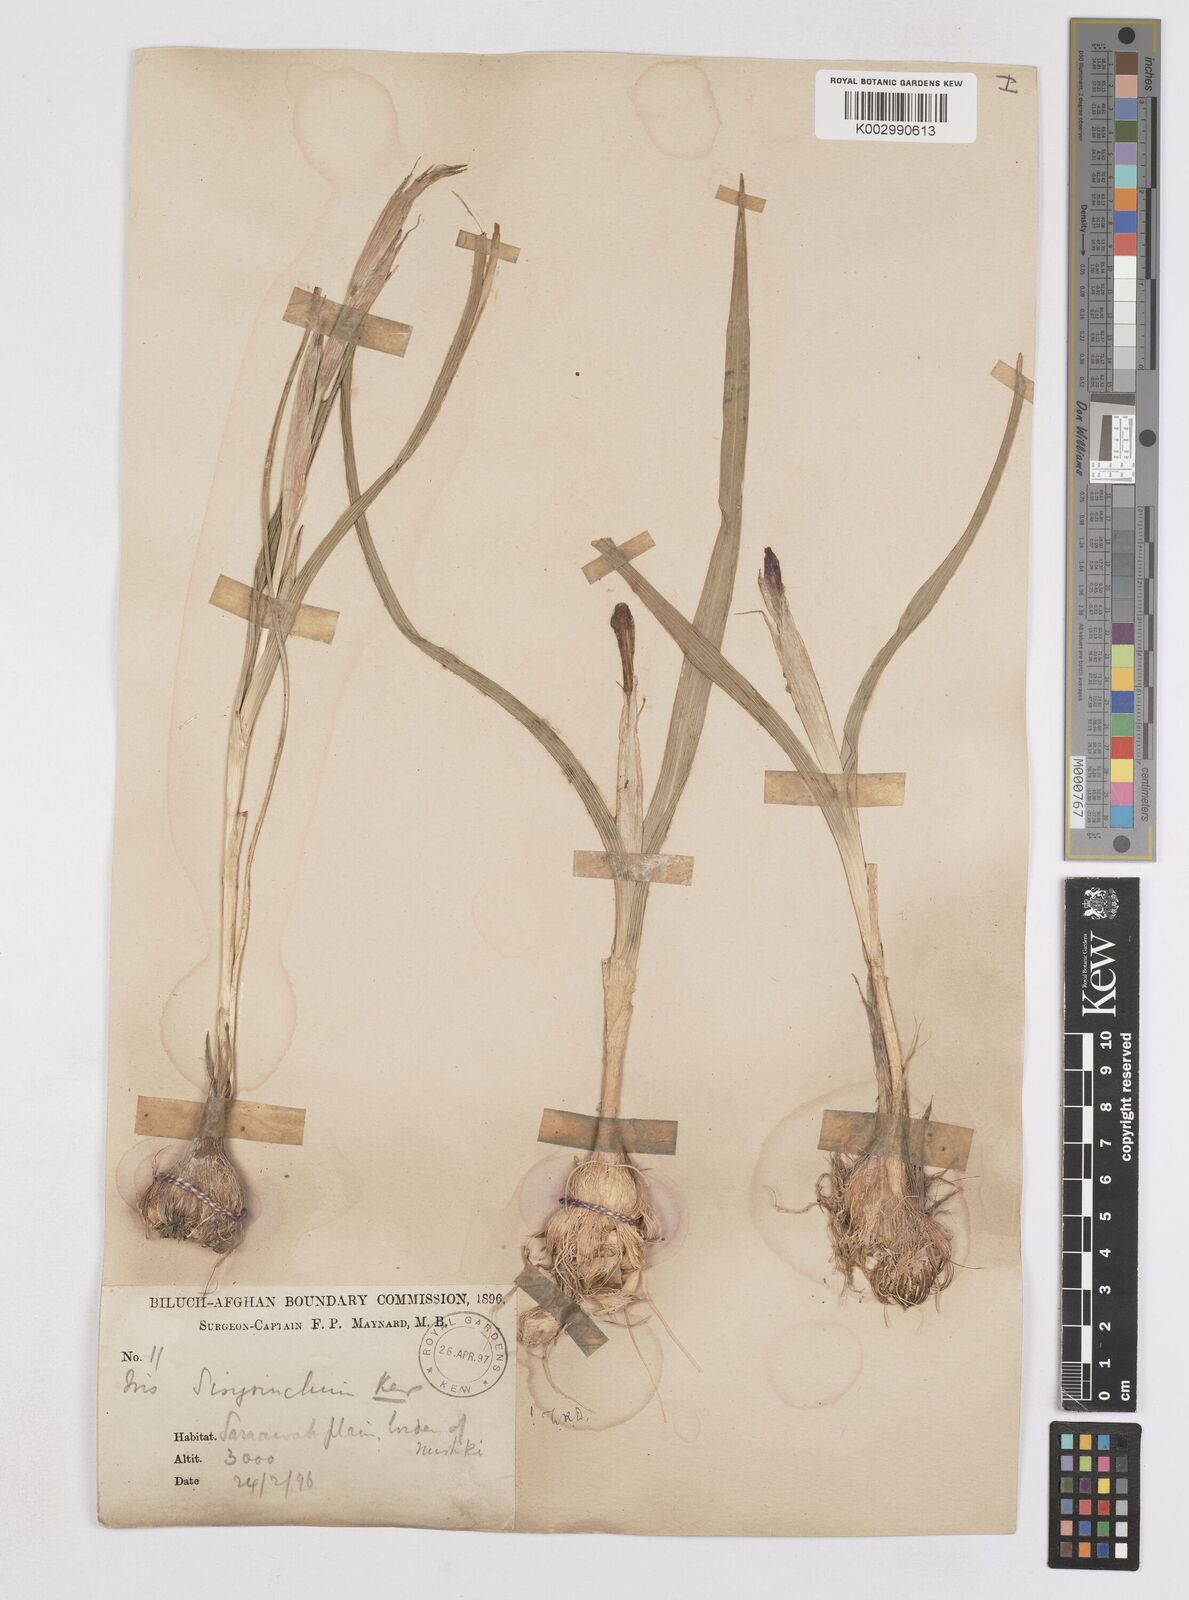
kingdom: Plantae
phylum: Tracheophyta
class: Liliopsida
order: Asparagales
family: Iridaceae
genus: Moraea
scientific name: Moraea sisyrinchium
